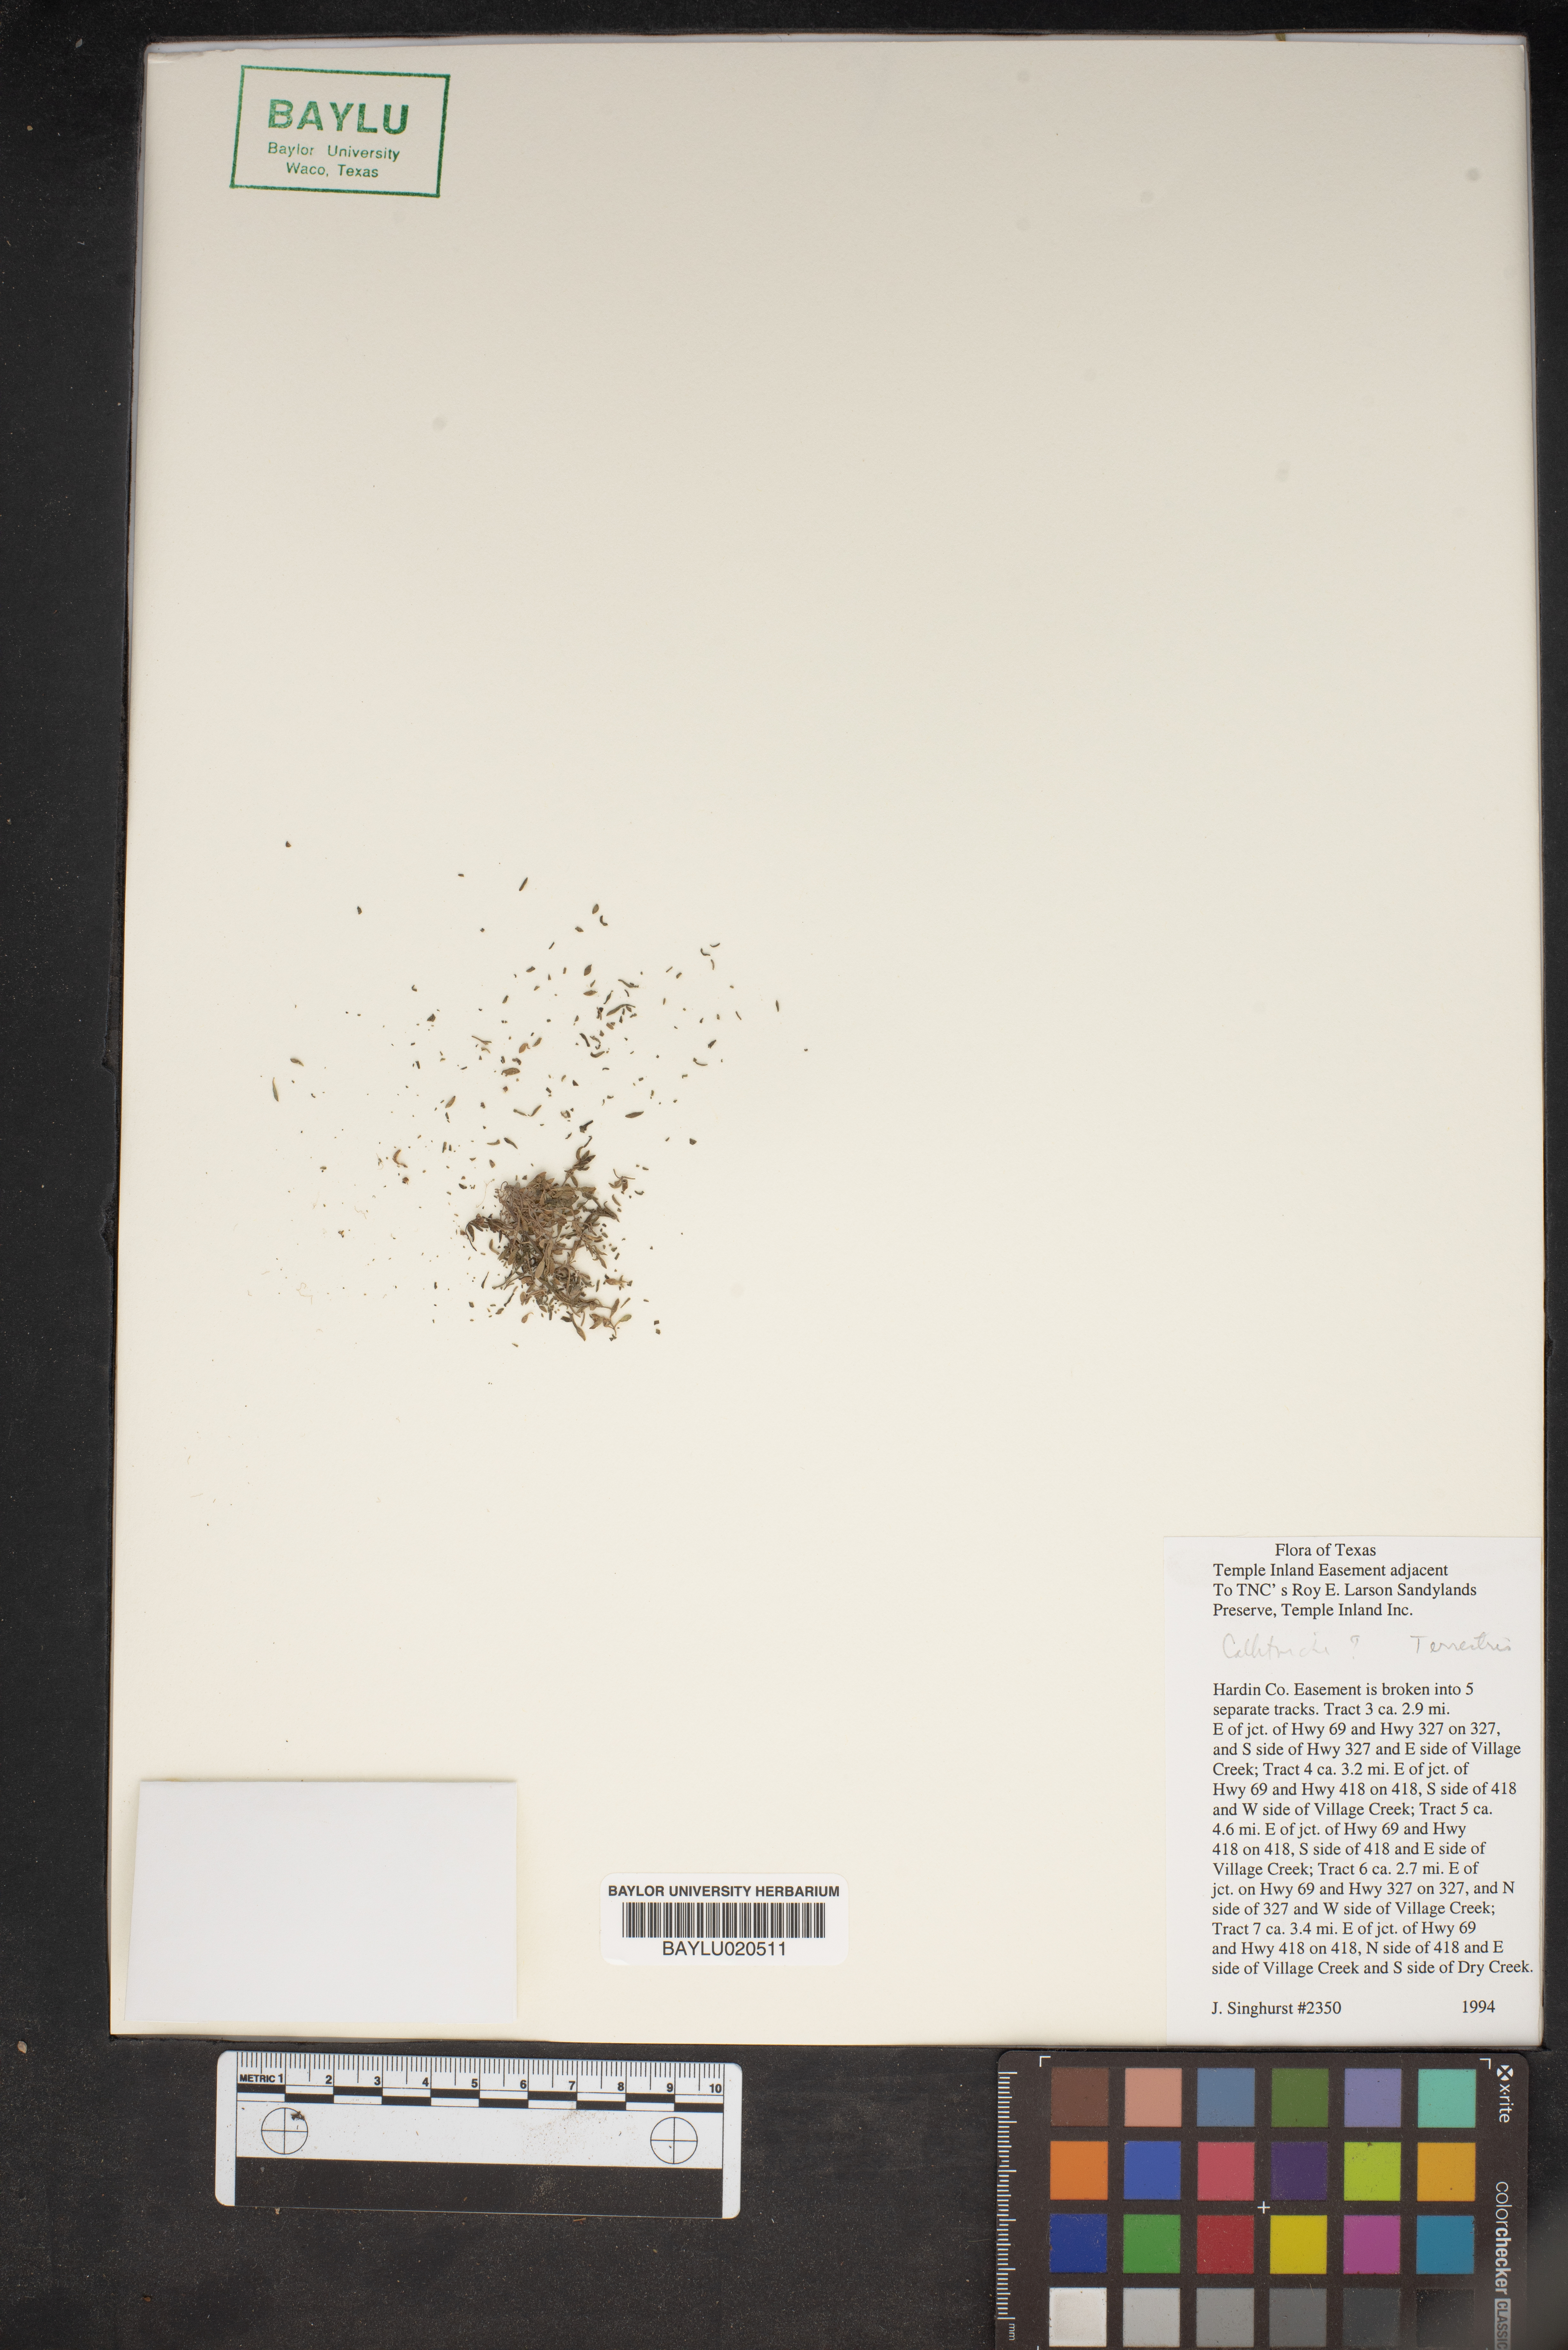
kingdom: Plantae
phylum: Tracheophyta
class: Magnoliopsida
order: Lamiales
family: Plantaginaceae
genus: Callitriche
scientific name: Callitriche terrestris
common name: Terrestrial water-starwort
